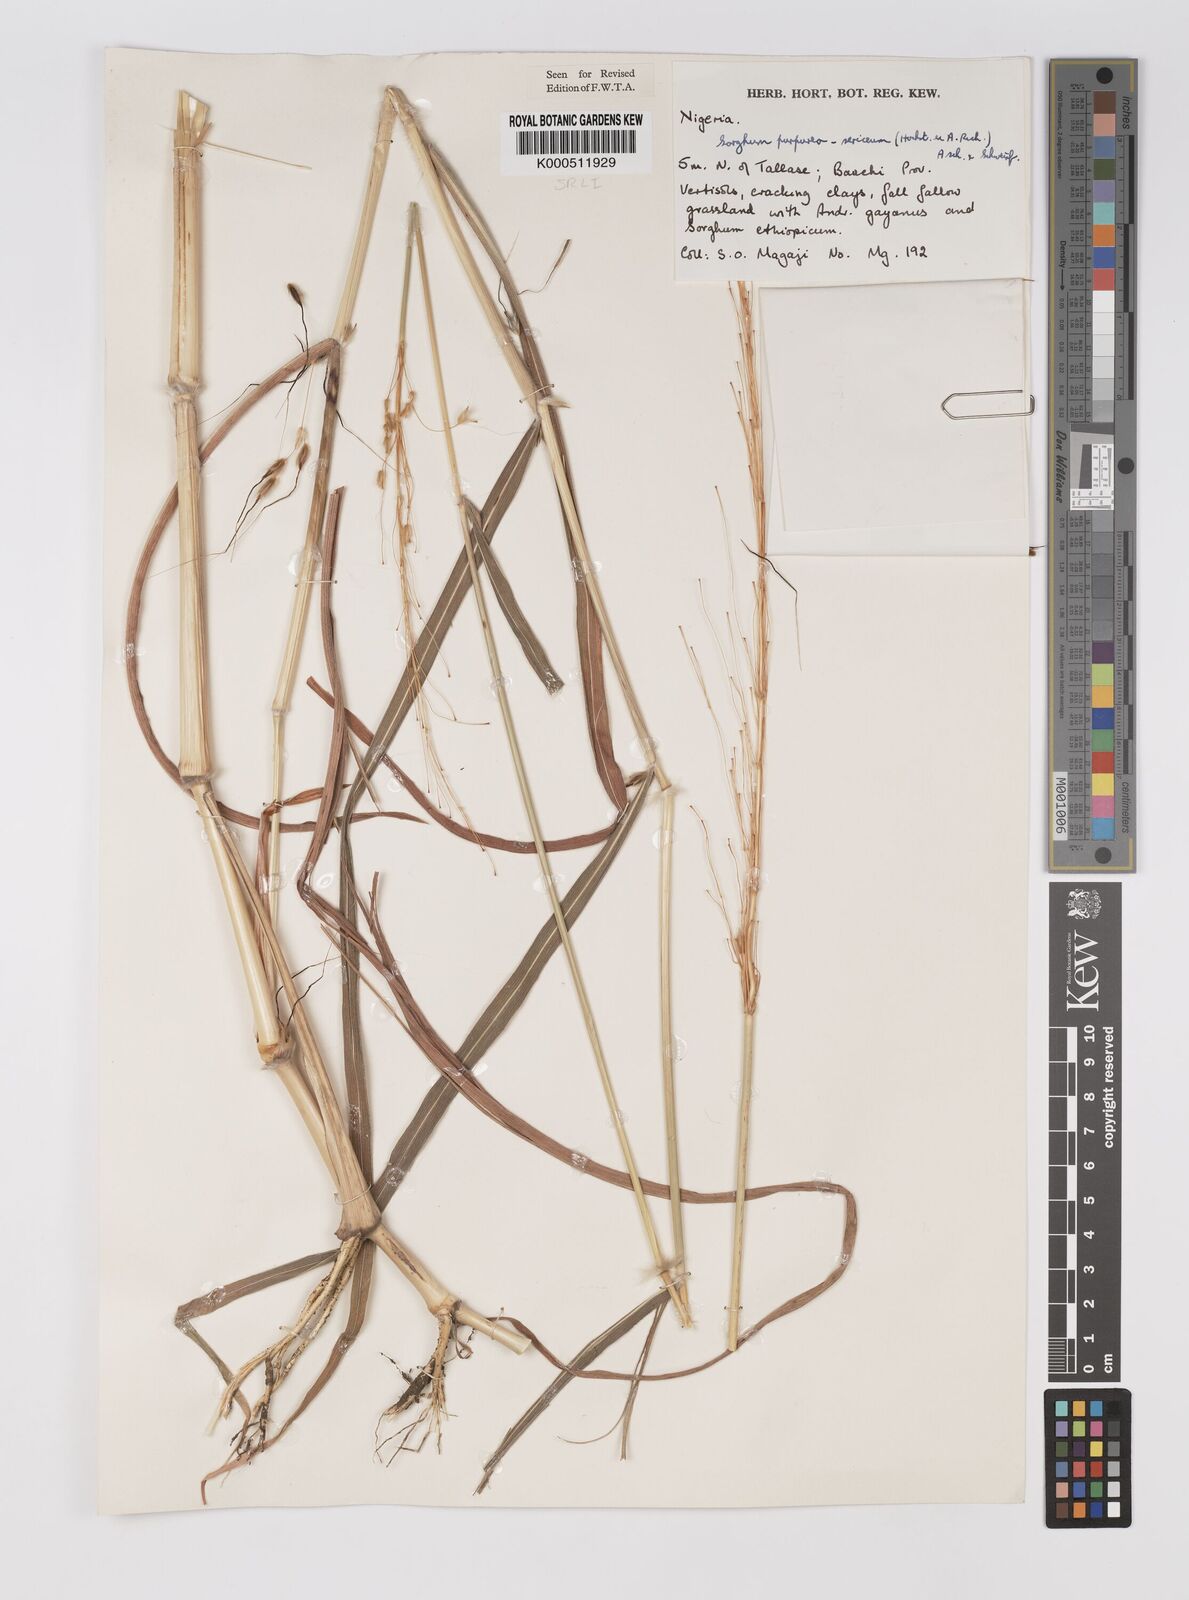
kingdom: Plantae
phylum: Tracheophyta
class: Liliopsida
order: Poales
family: Poaceae
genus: Sarga
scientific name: Sarga purpureosericea
